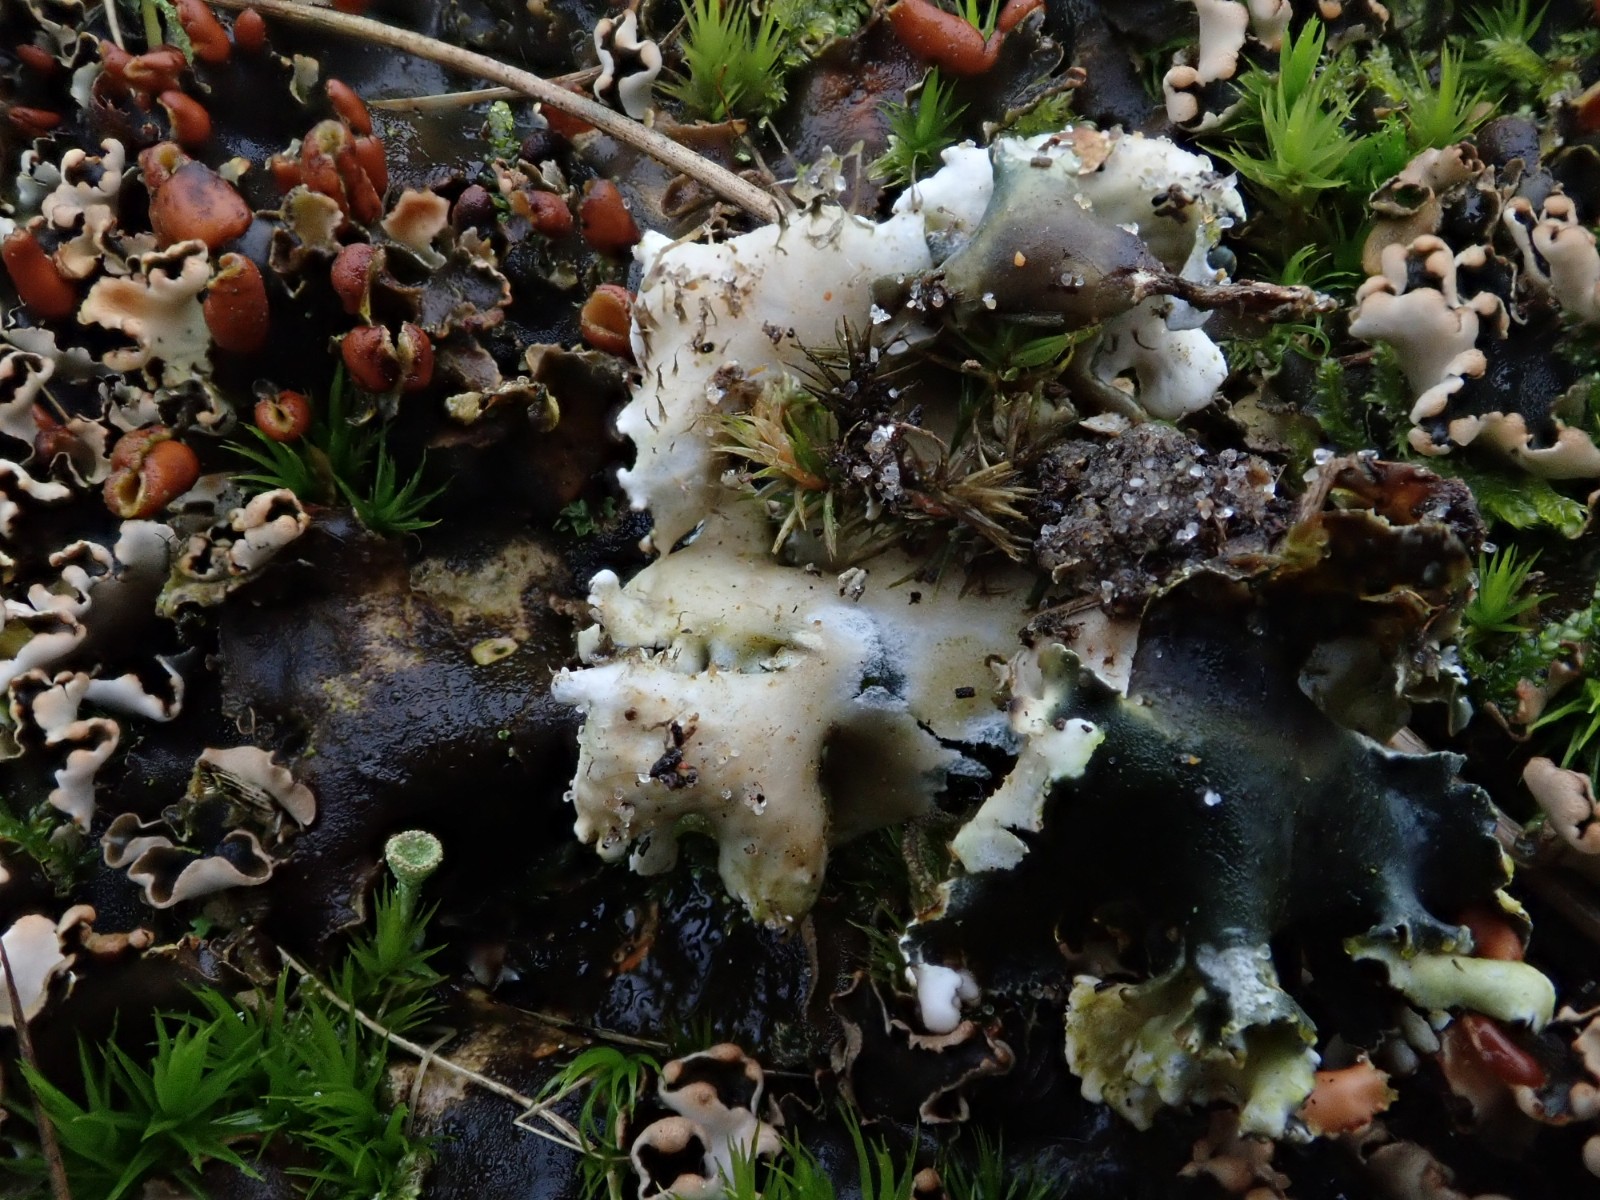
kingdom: Fungi
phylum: Ascomycota
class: Lecanoromycetes
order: Peltigerales
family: Peltigeraceae
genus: Peltigera
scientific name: Peltigera didactyla
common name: liden skjoldlav
